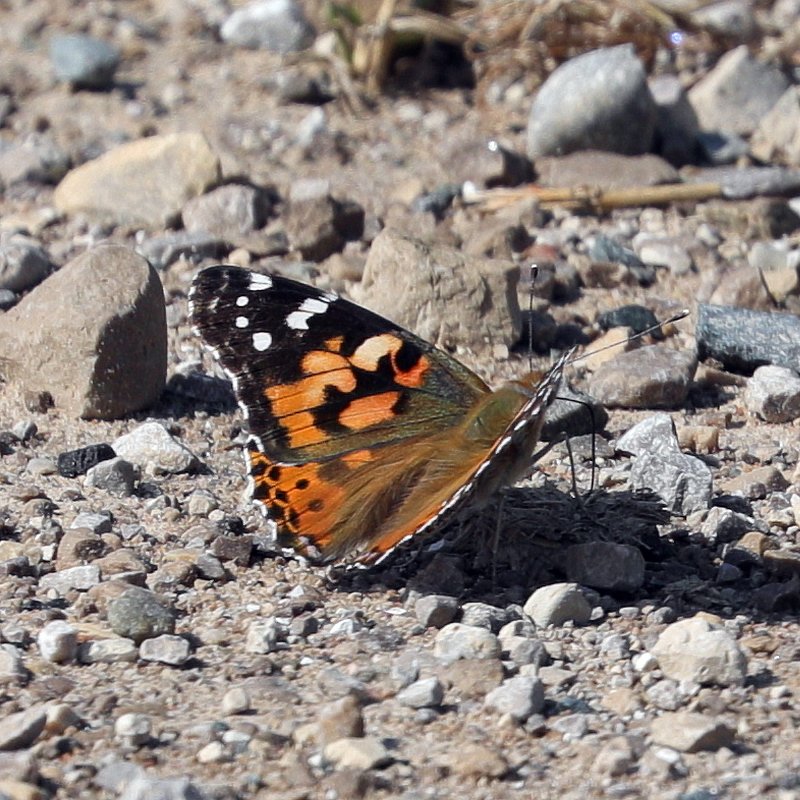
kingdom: Animalia
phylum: Arthropoda
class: Insecta
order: Lepidoptera
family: Nymphalidae
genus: Vanessa
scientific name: Vanessa cardui
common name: Painted Lady
